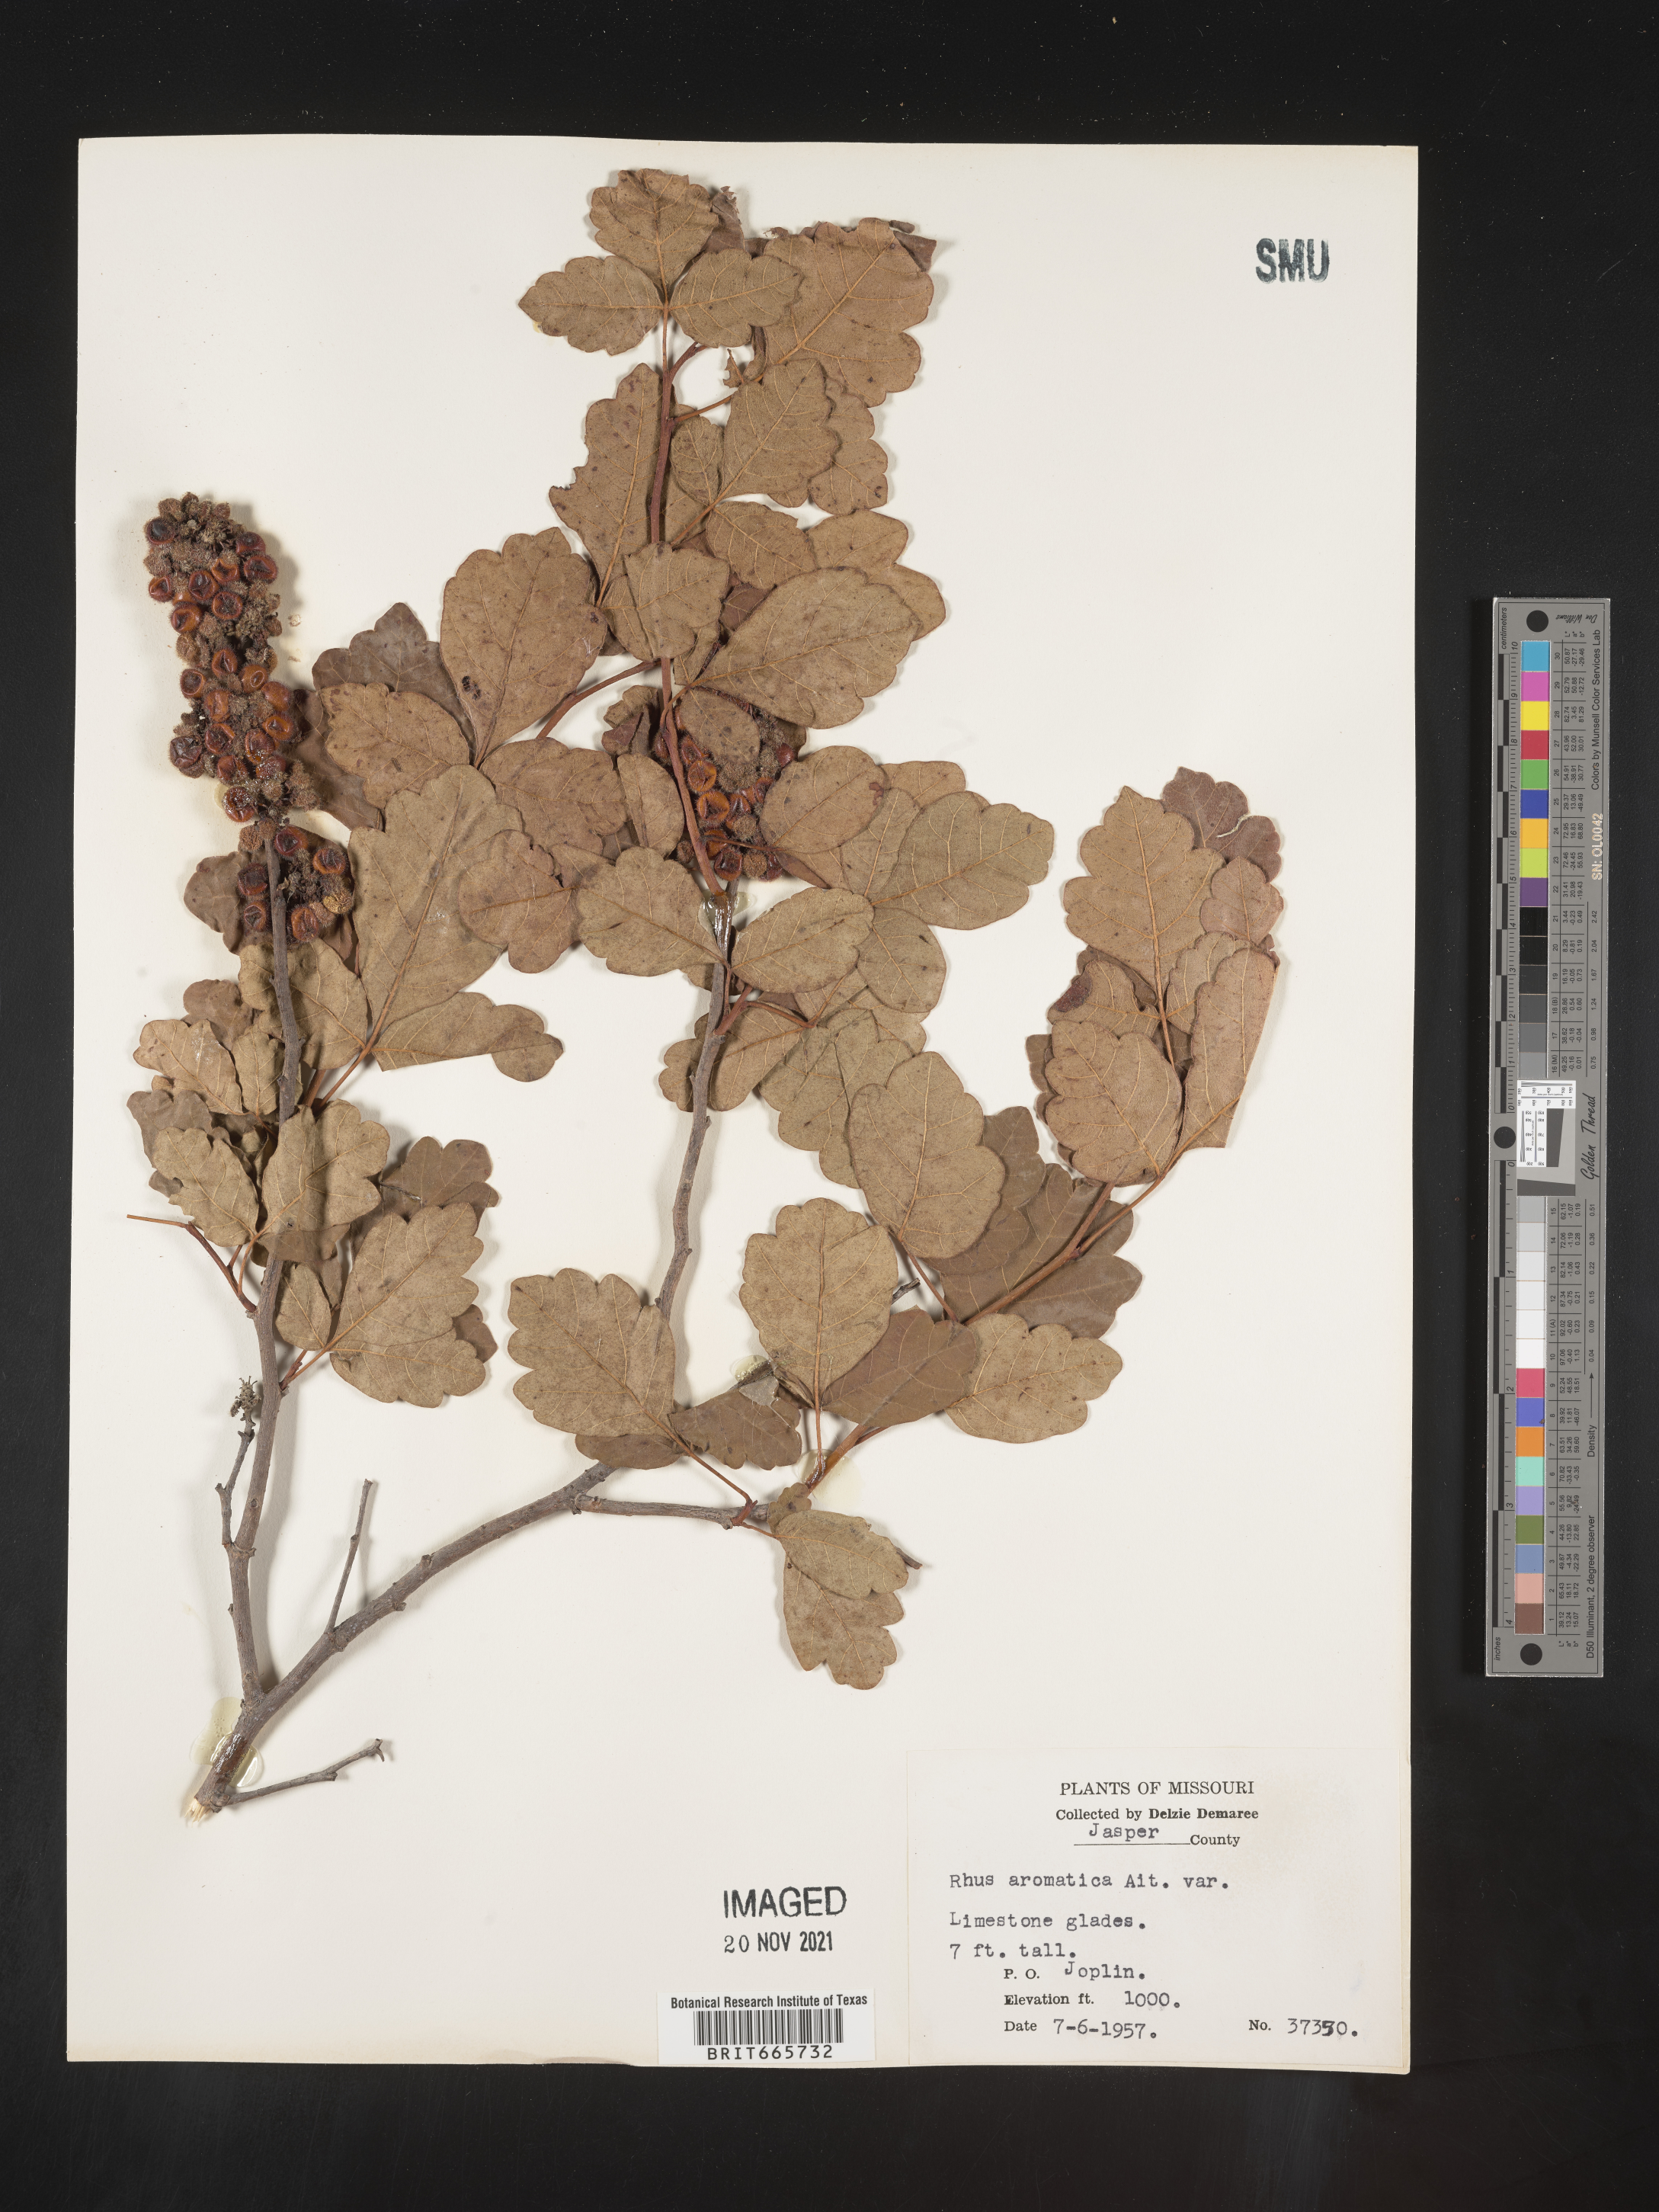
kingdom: Plantae
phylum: Tracheophyta
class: Magnoliopsida
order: Sapindales
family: Anacardiaceae
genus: Rhus
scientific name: Rhus aromatica
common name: Aromatic sumac
